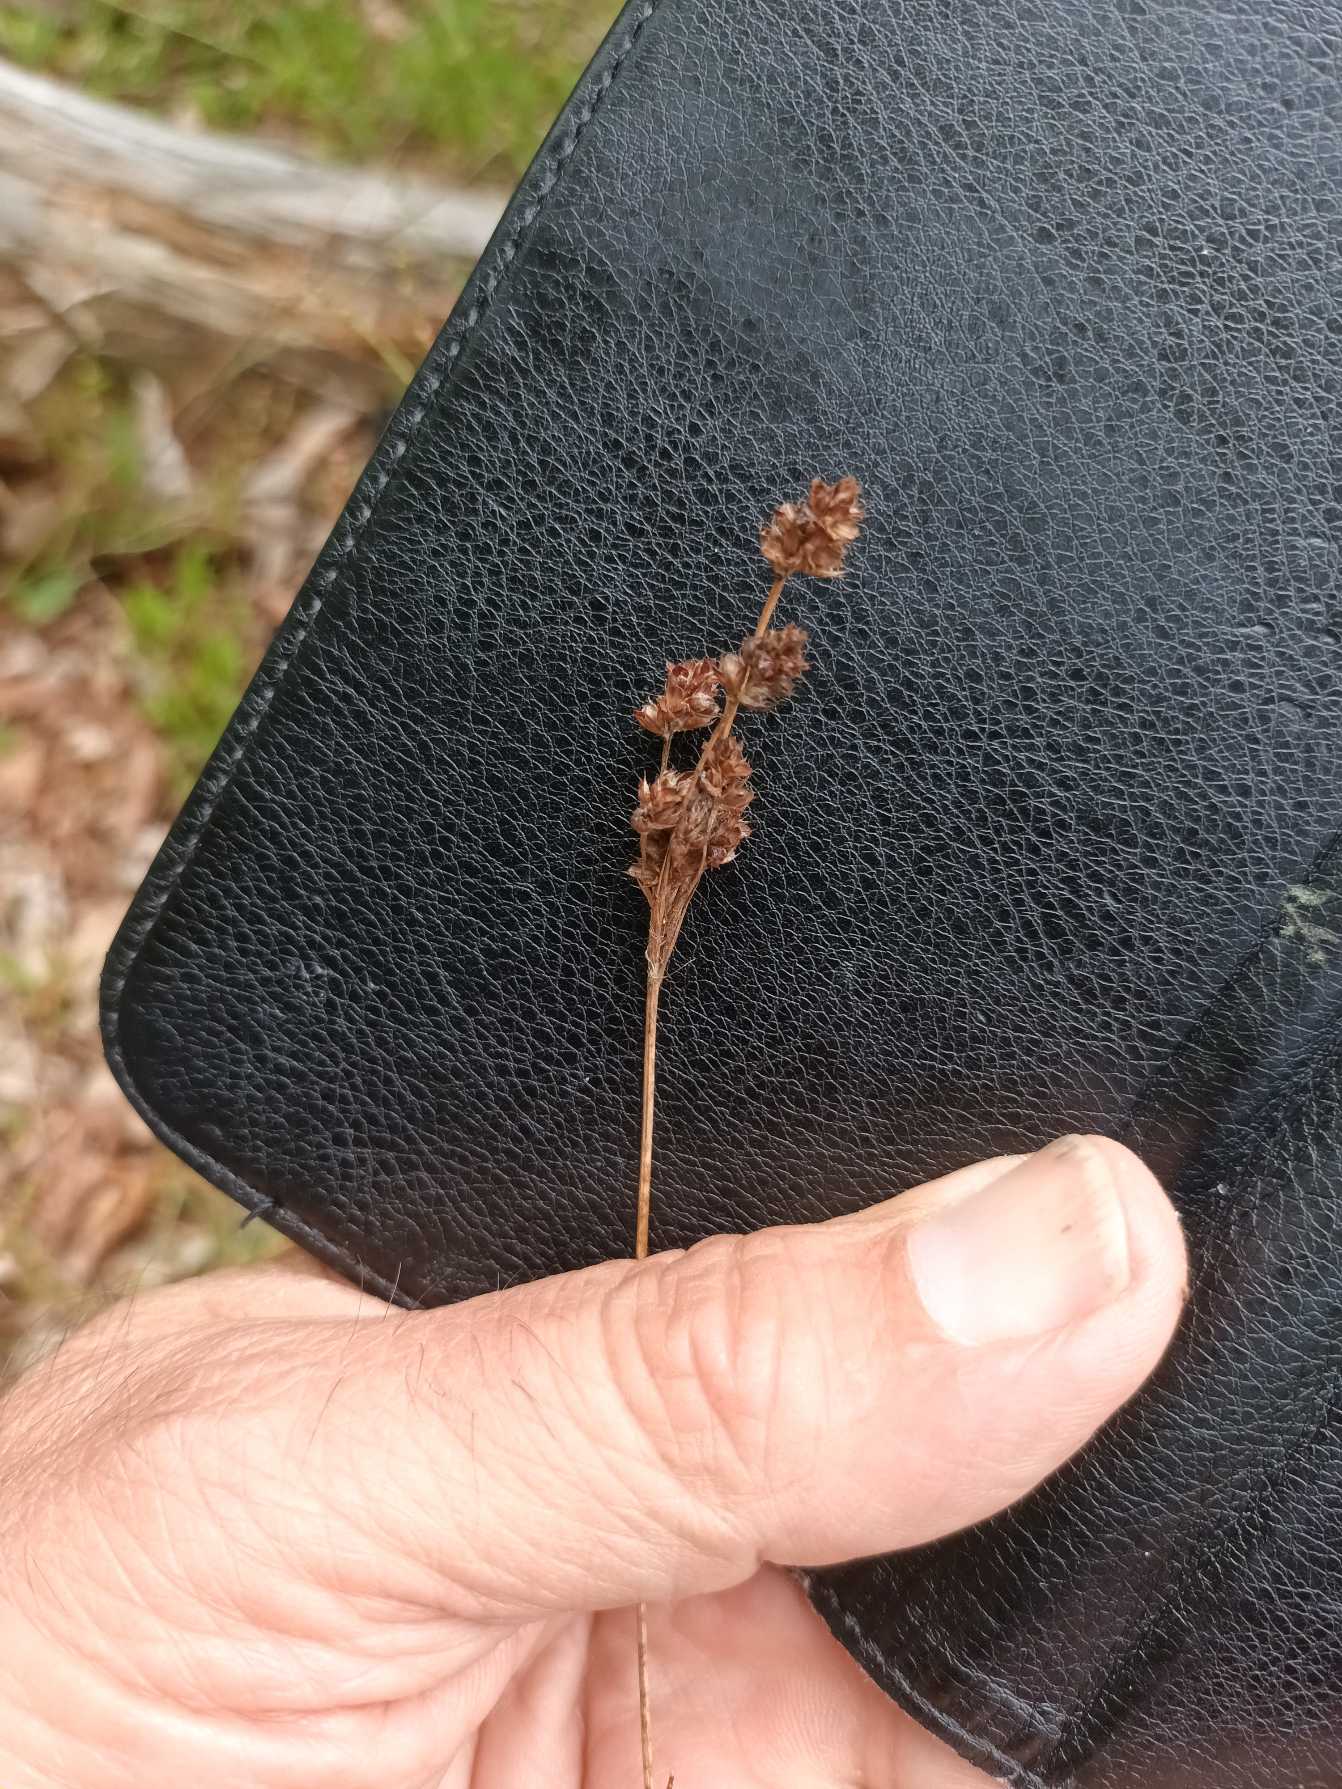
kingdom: Plantae
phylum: Tracheophyta
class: Liliopsida
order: Poales
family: Juncaceae
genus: Luzula
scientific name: Luzula multiflora
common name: Mangeblomstret frytle
